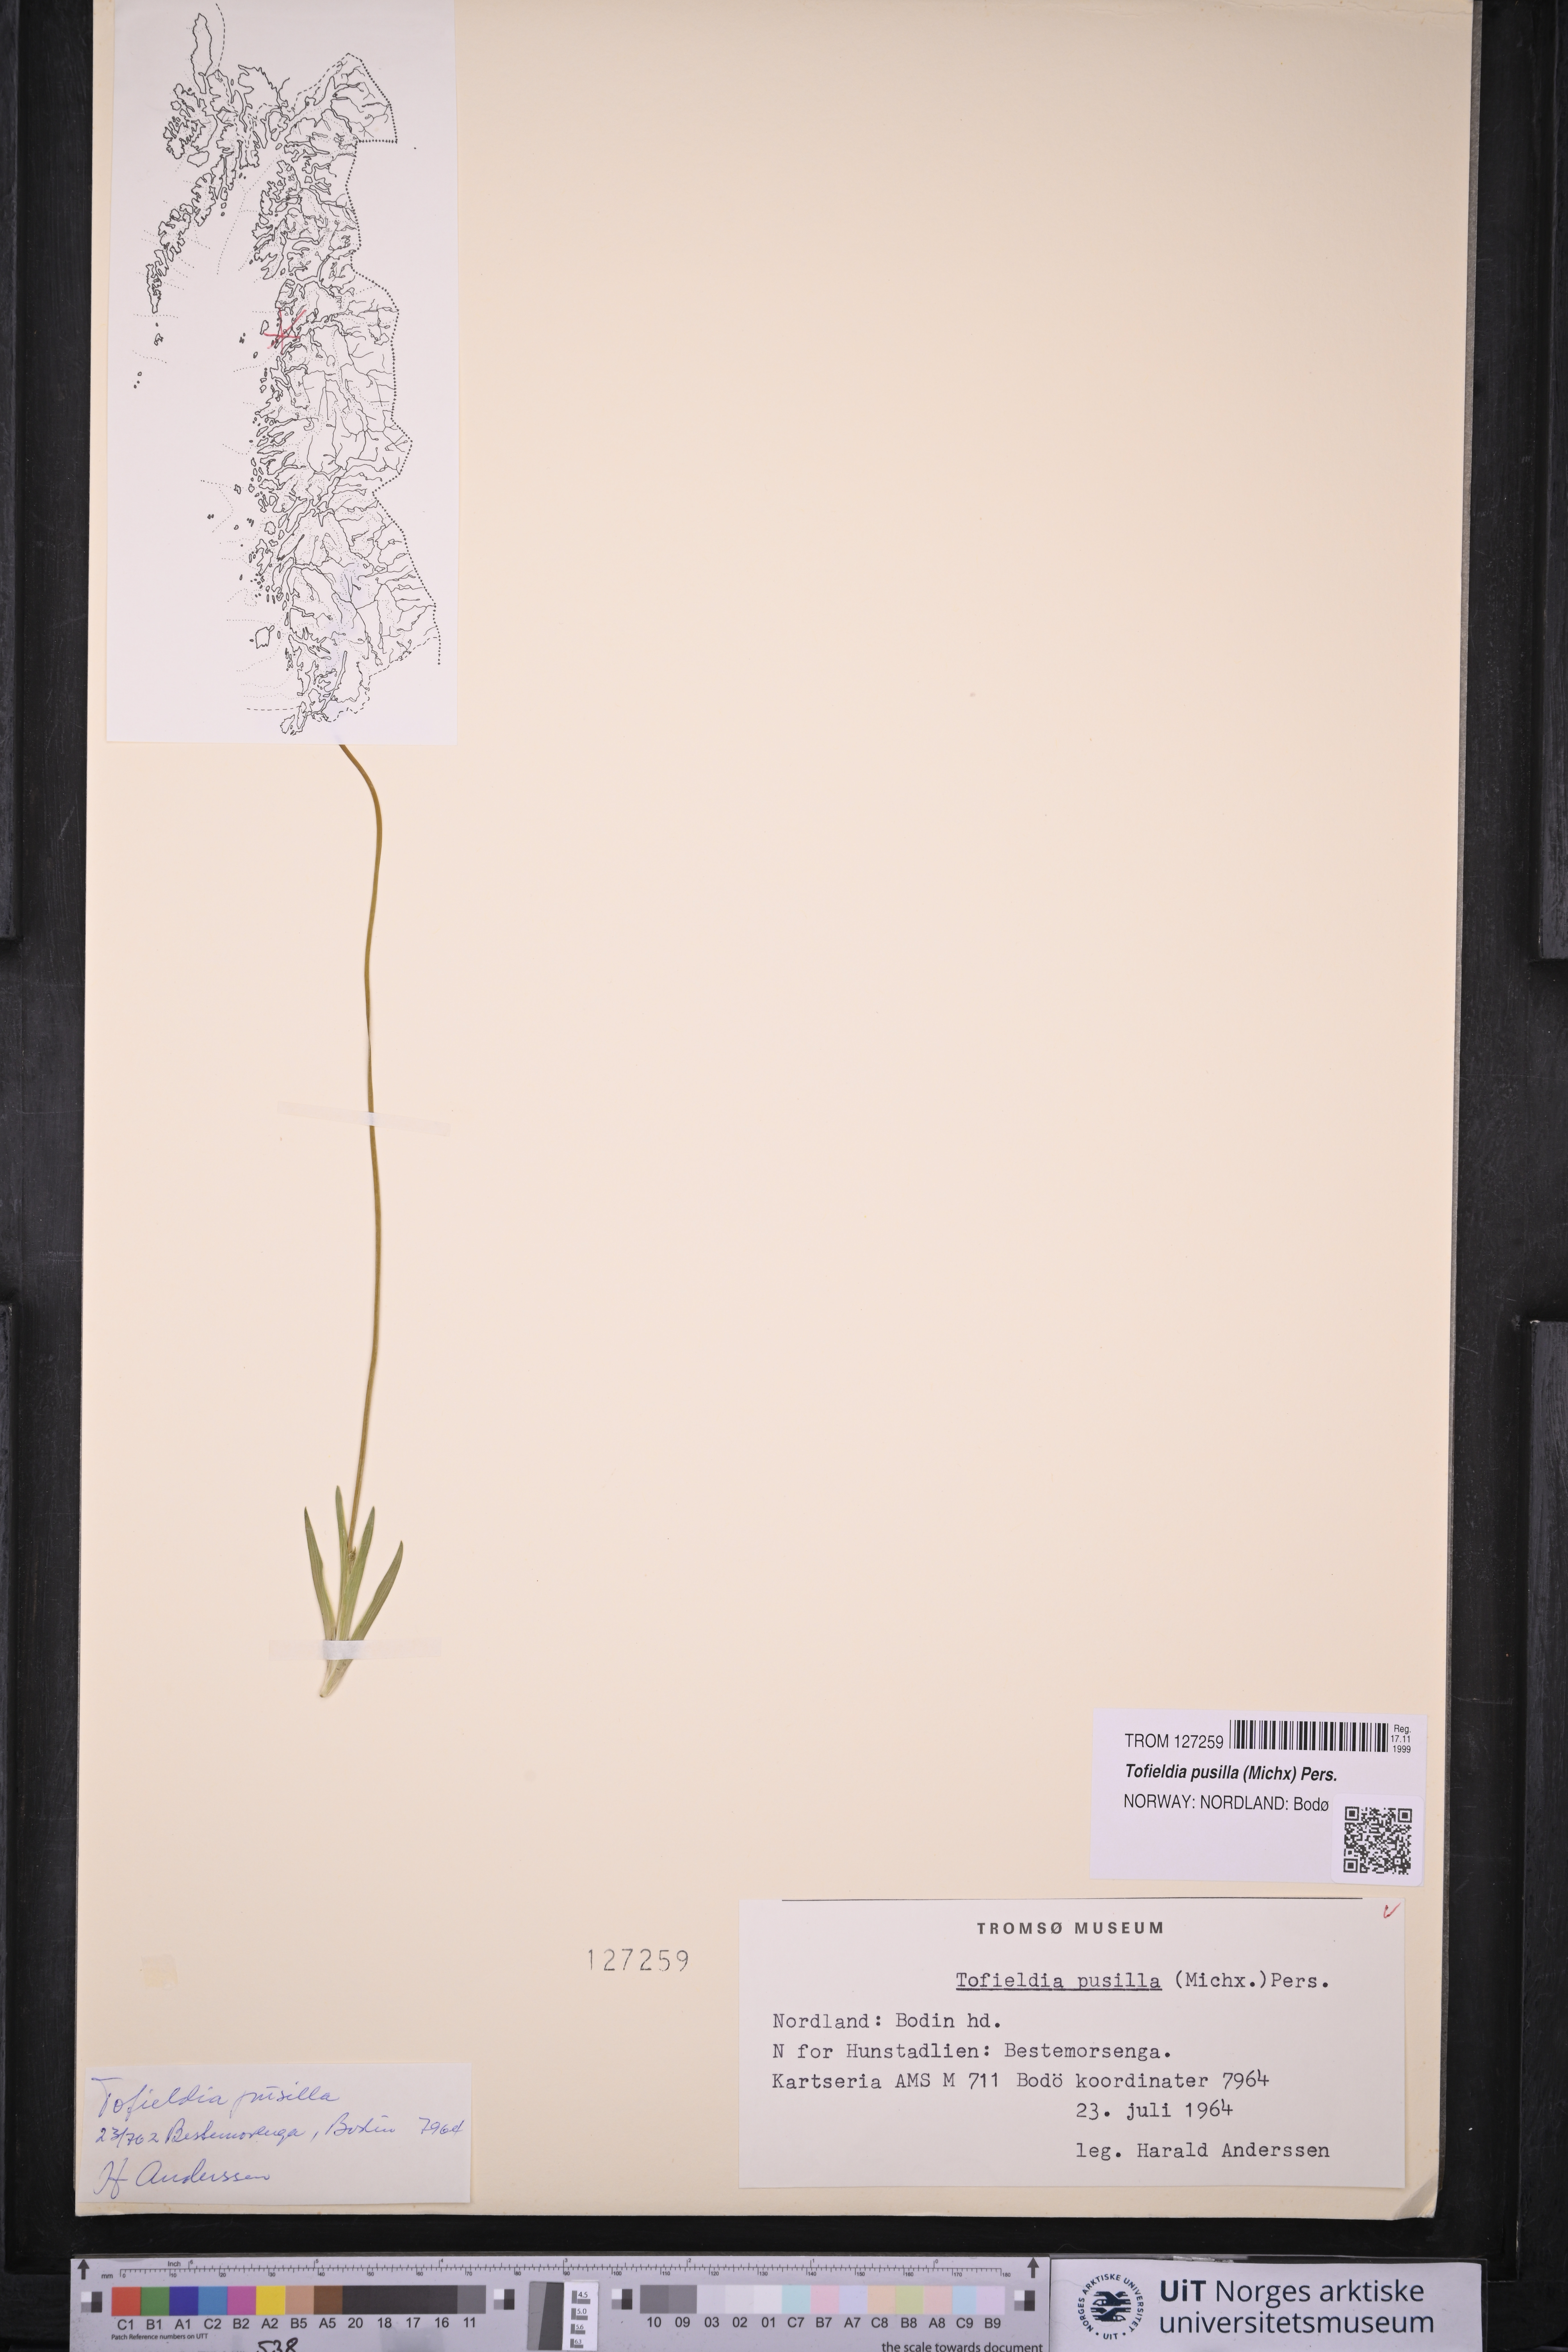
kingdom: Plantae
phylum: Tracheophyta
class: Liliopsida
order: Alismatales
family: Tofieldiaceae
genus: Tofieldia
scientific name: Tofieldia pusilla
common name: Scottish false asphodel
